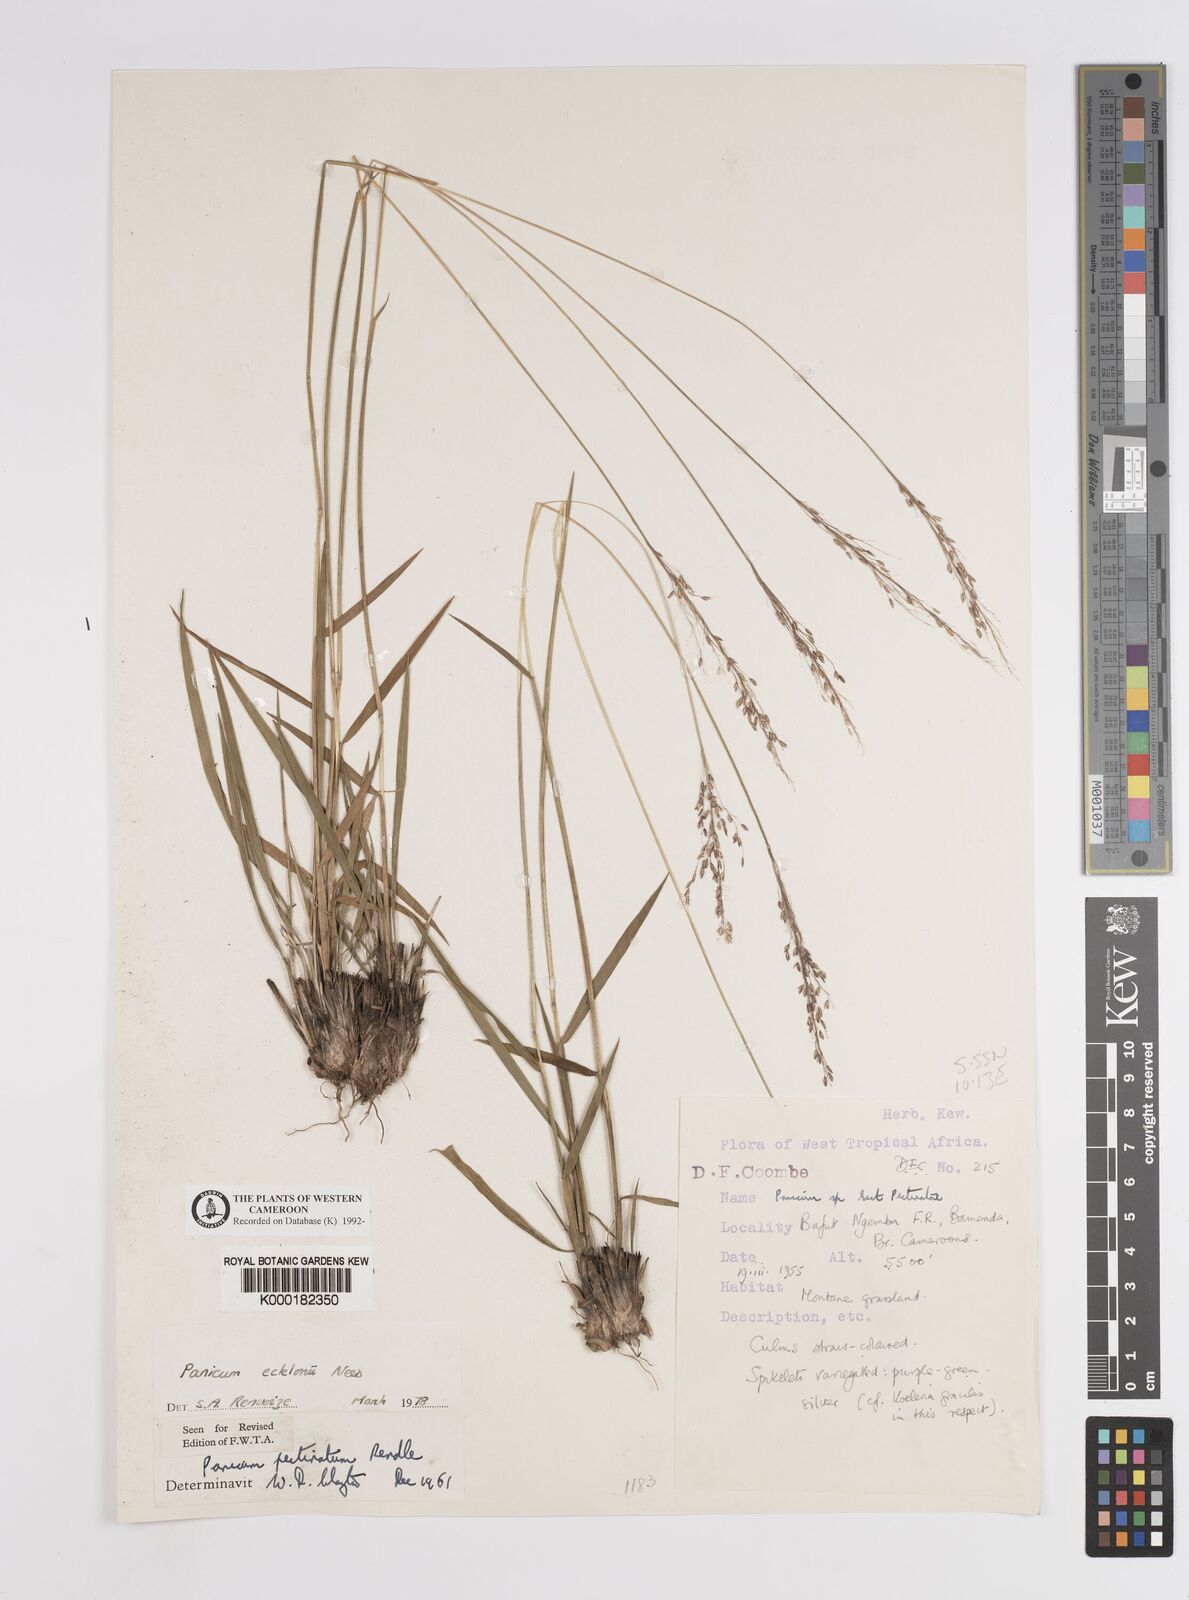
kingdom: Plantae
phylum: Tracheophyta
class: Liliopsida
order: Poales
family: Poaceae
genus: Adenochloa
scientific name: Adenochloa ecklonii
